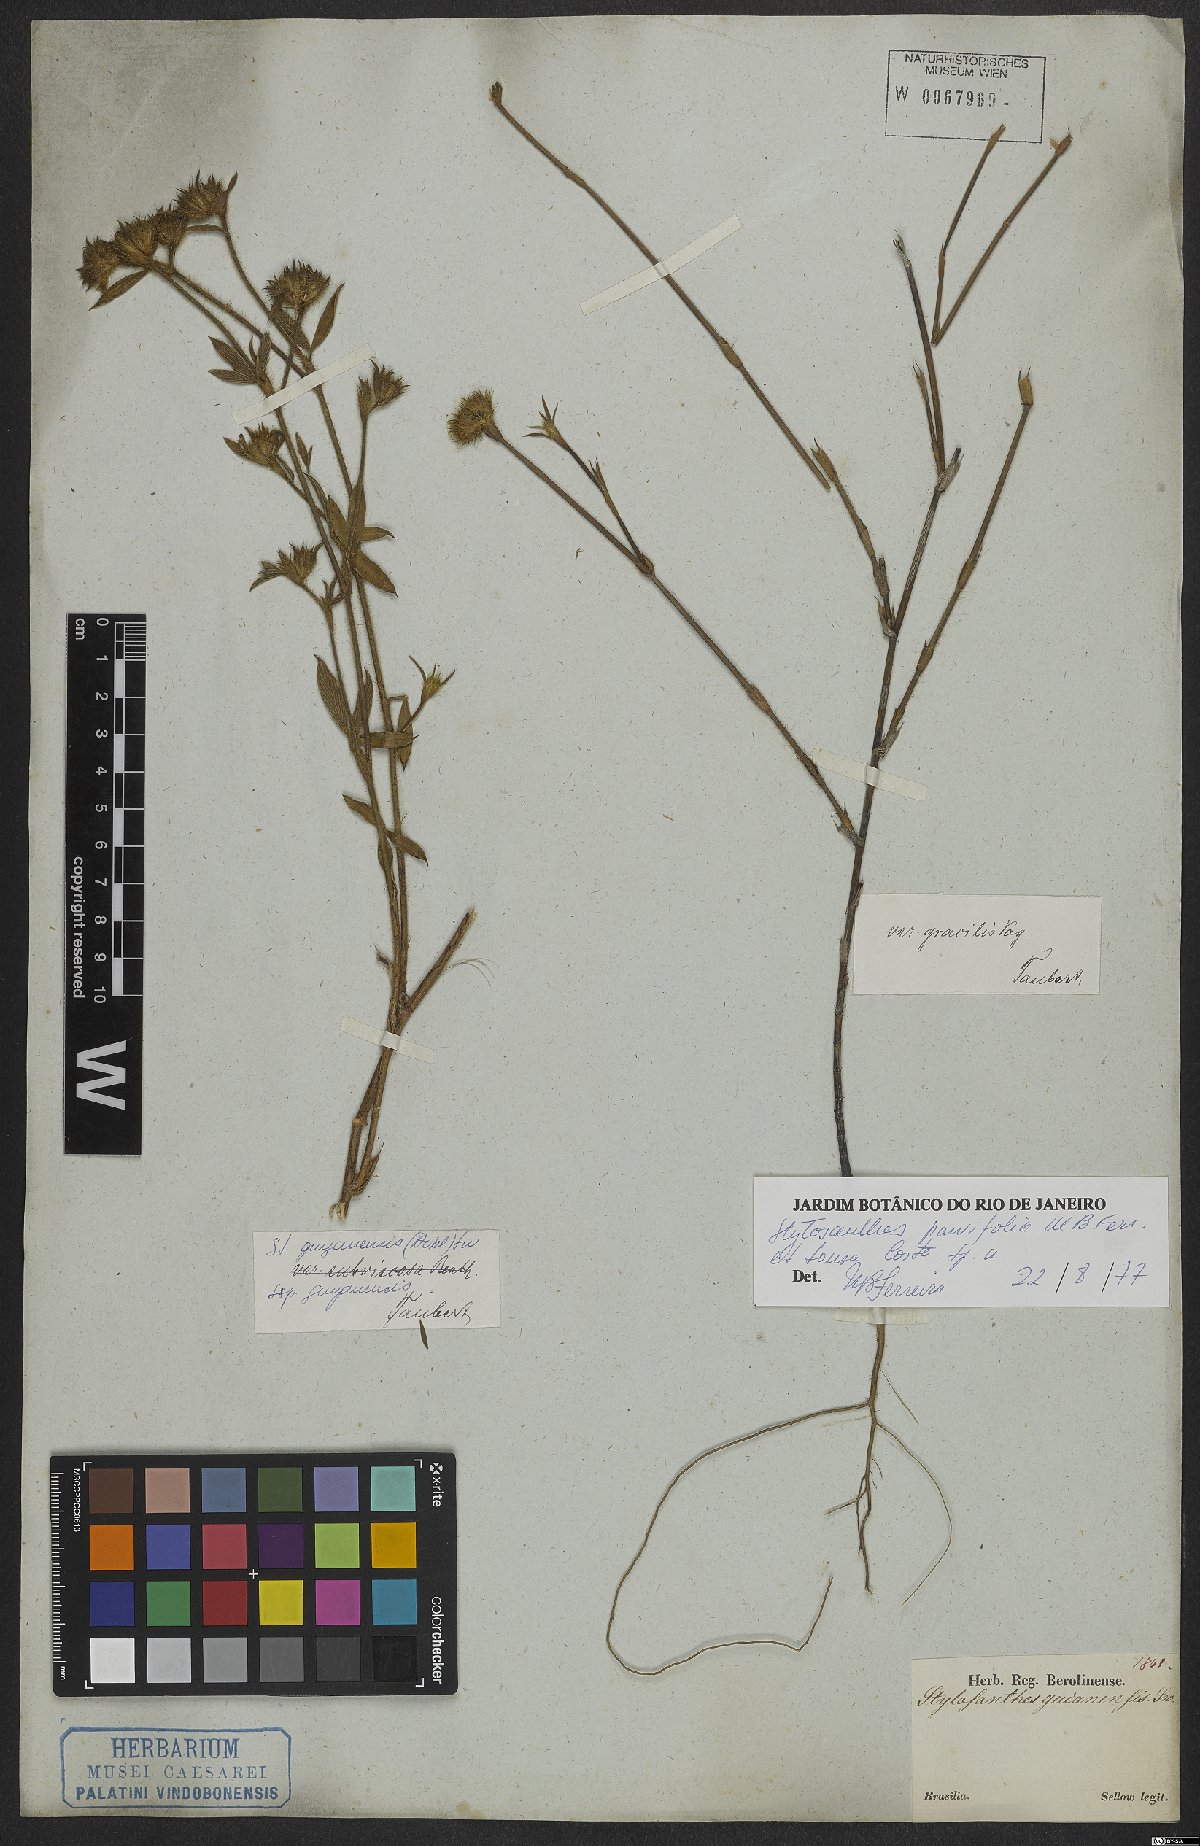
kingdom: Plantae
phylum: Tracheophyta
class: Magnoliopsida
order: Fabales
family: Fabaceae
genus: Stylosanthes
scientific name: Stylosanthes
